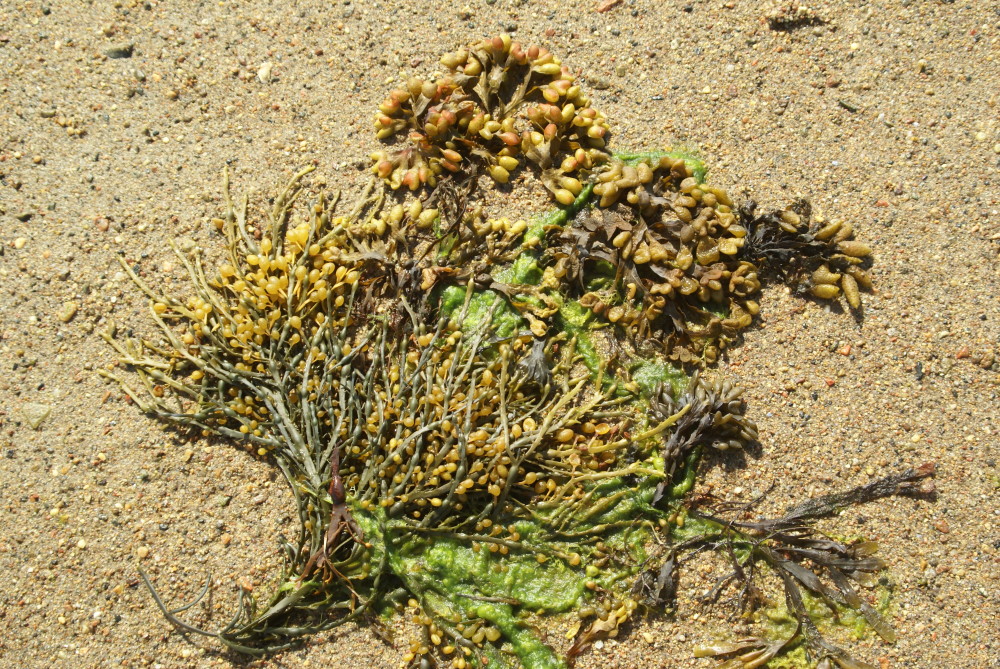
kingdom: Plantae
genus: Fucus
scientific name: Fucus
